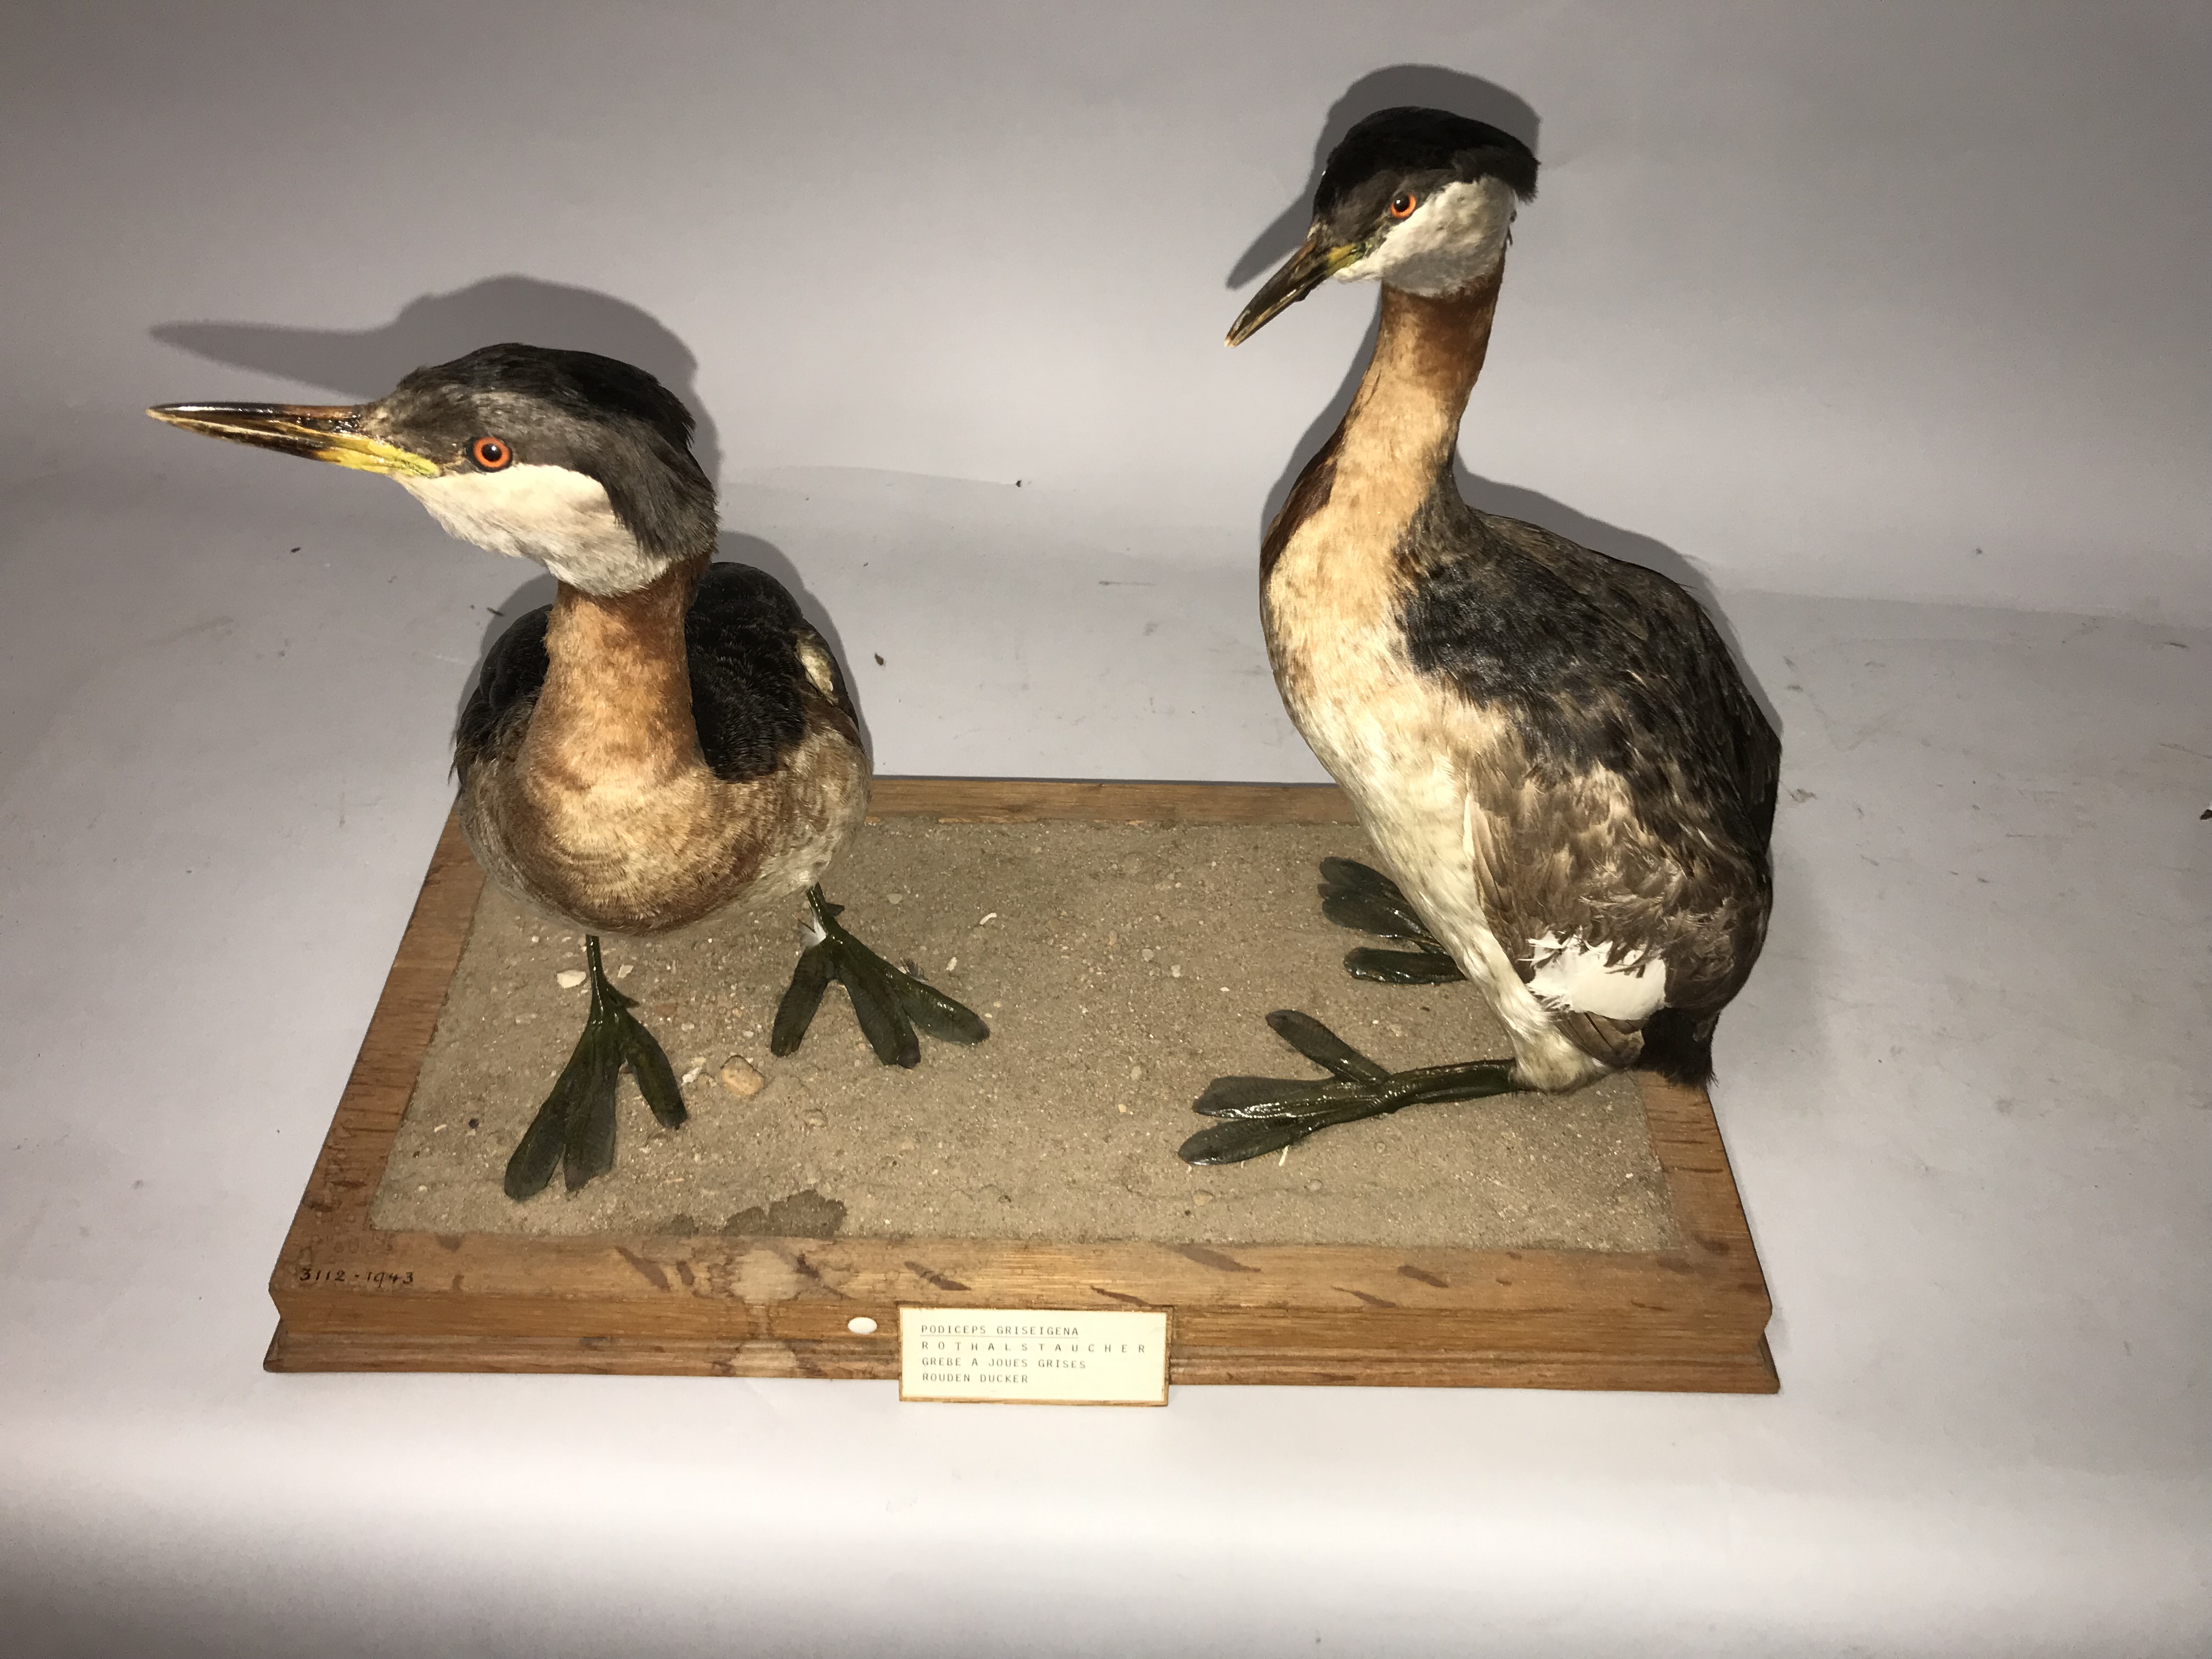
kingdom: Animalia
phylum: Chordata
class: Aves
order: Podicipediformes
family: Podicipedidae
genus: Podiceps
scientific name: Podiceps grisegena
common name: Red-necked grebe
